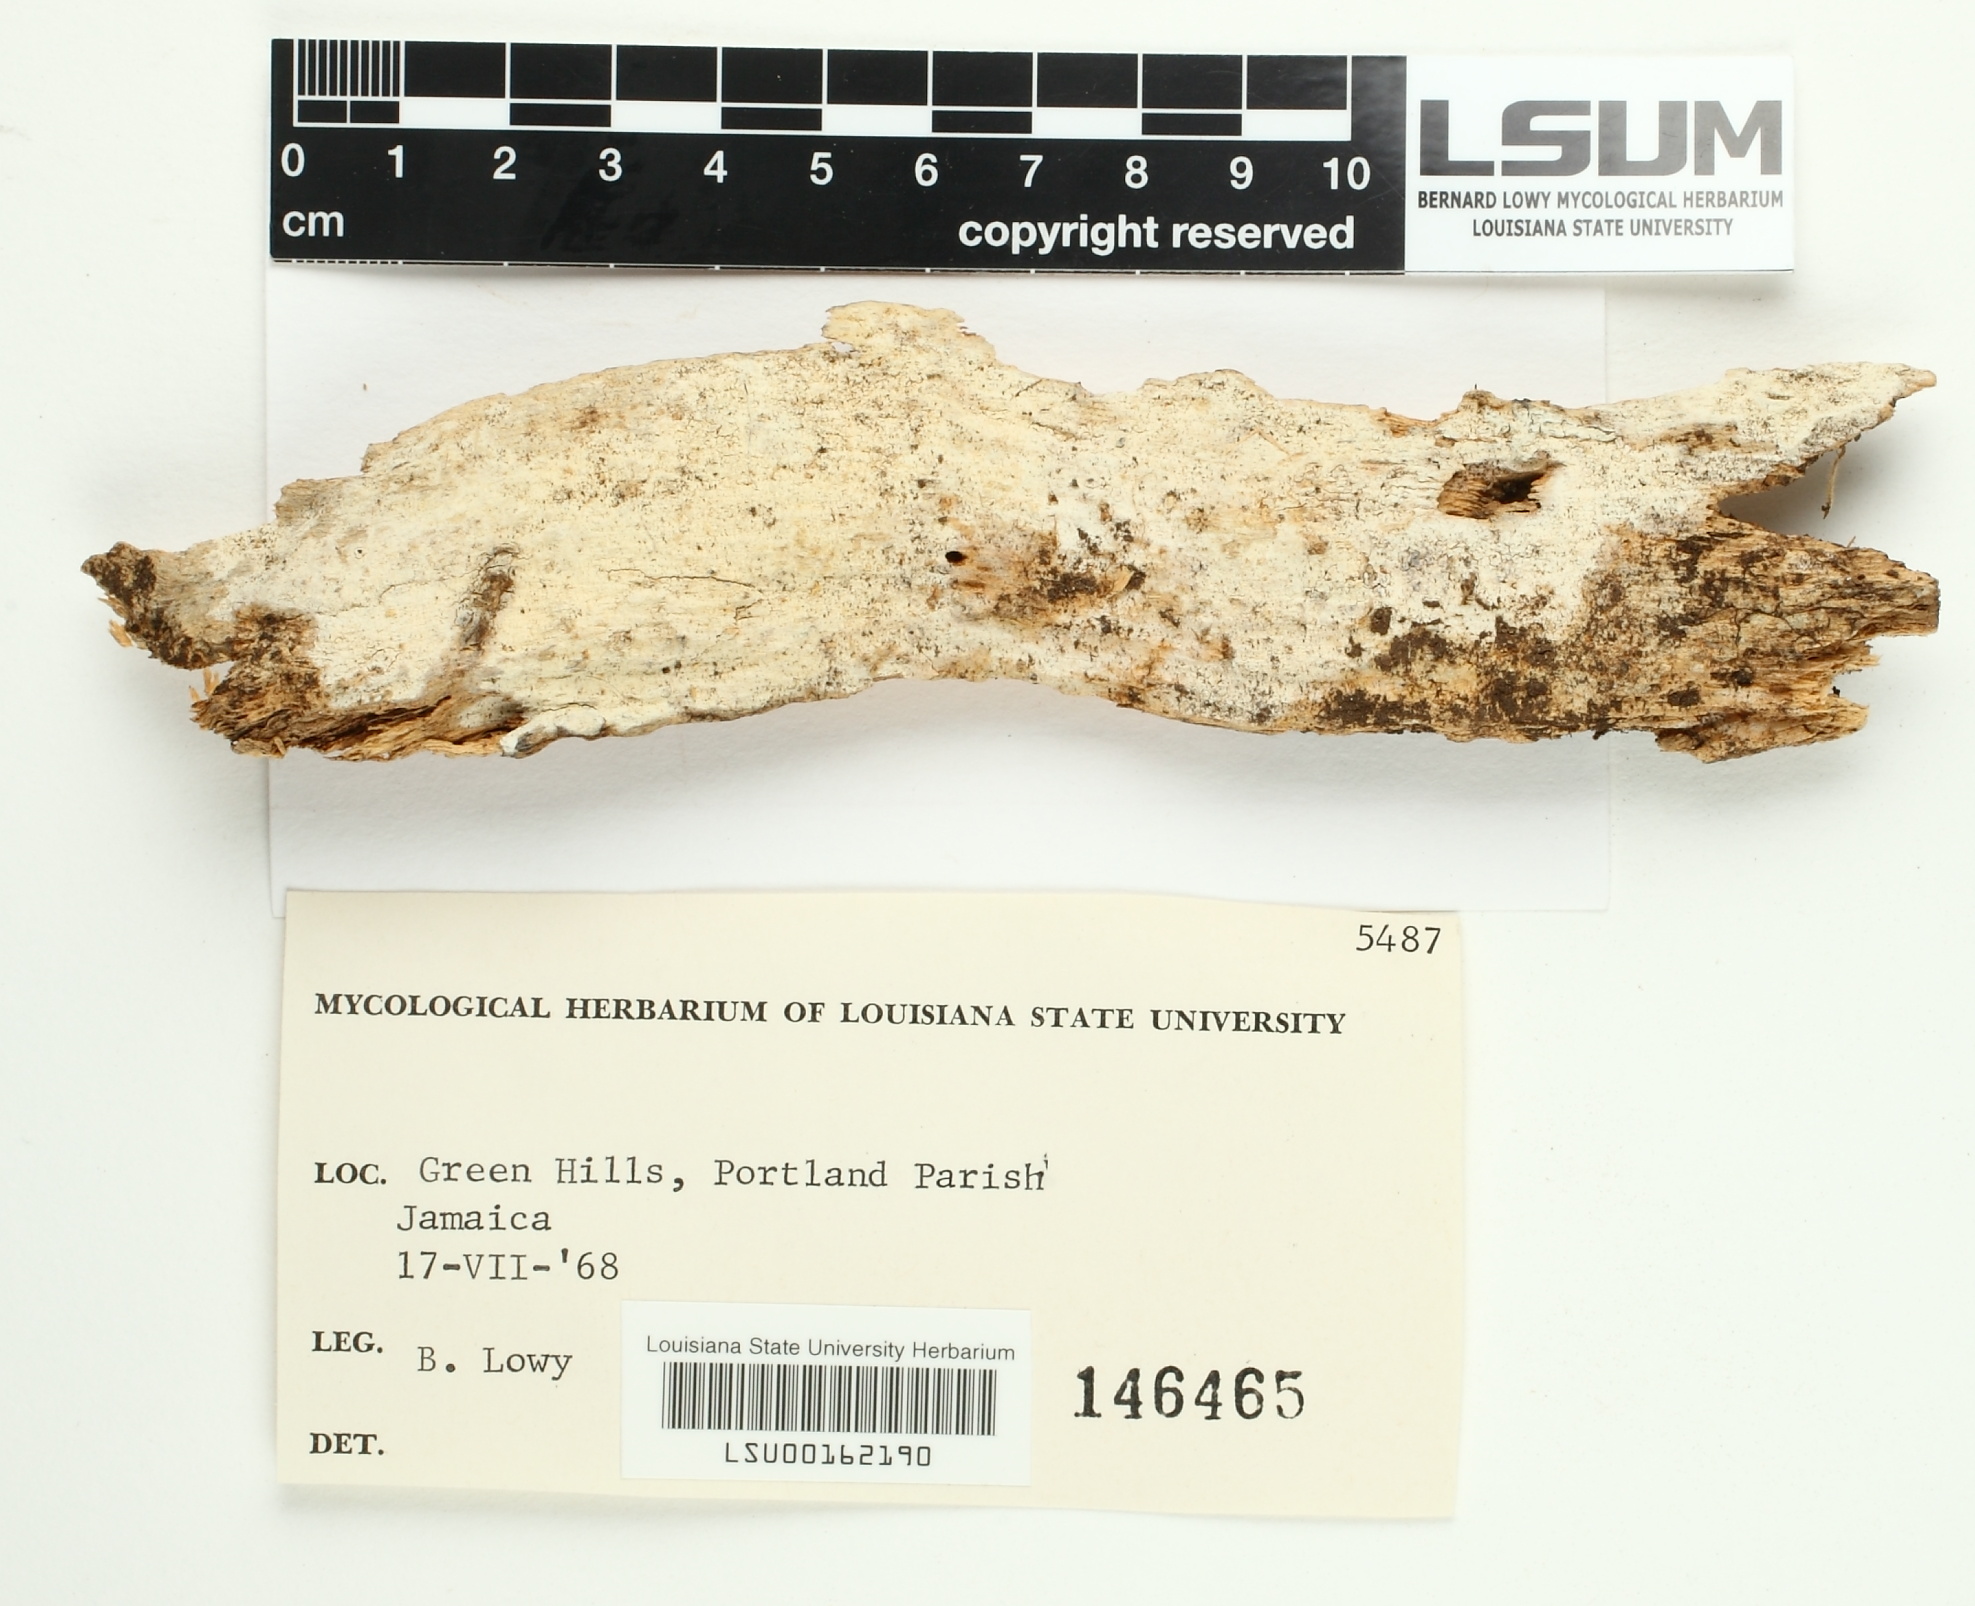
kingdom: Fungi
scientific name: Fungi
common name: Fungi
